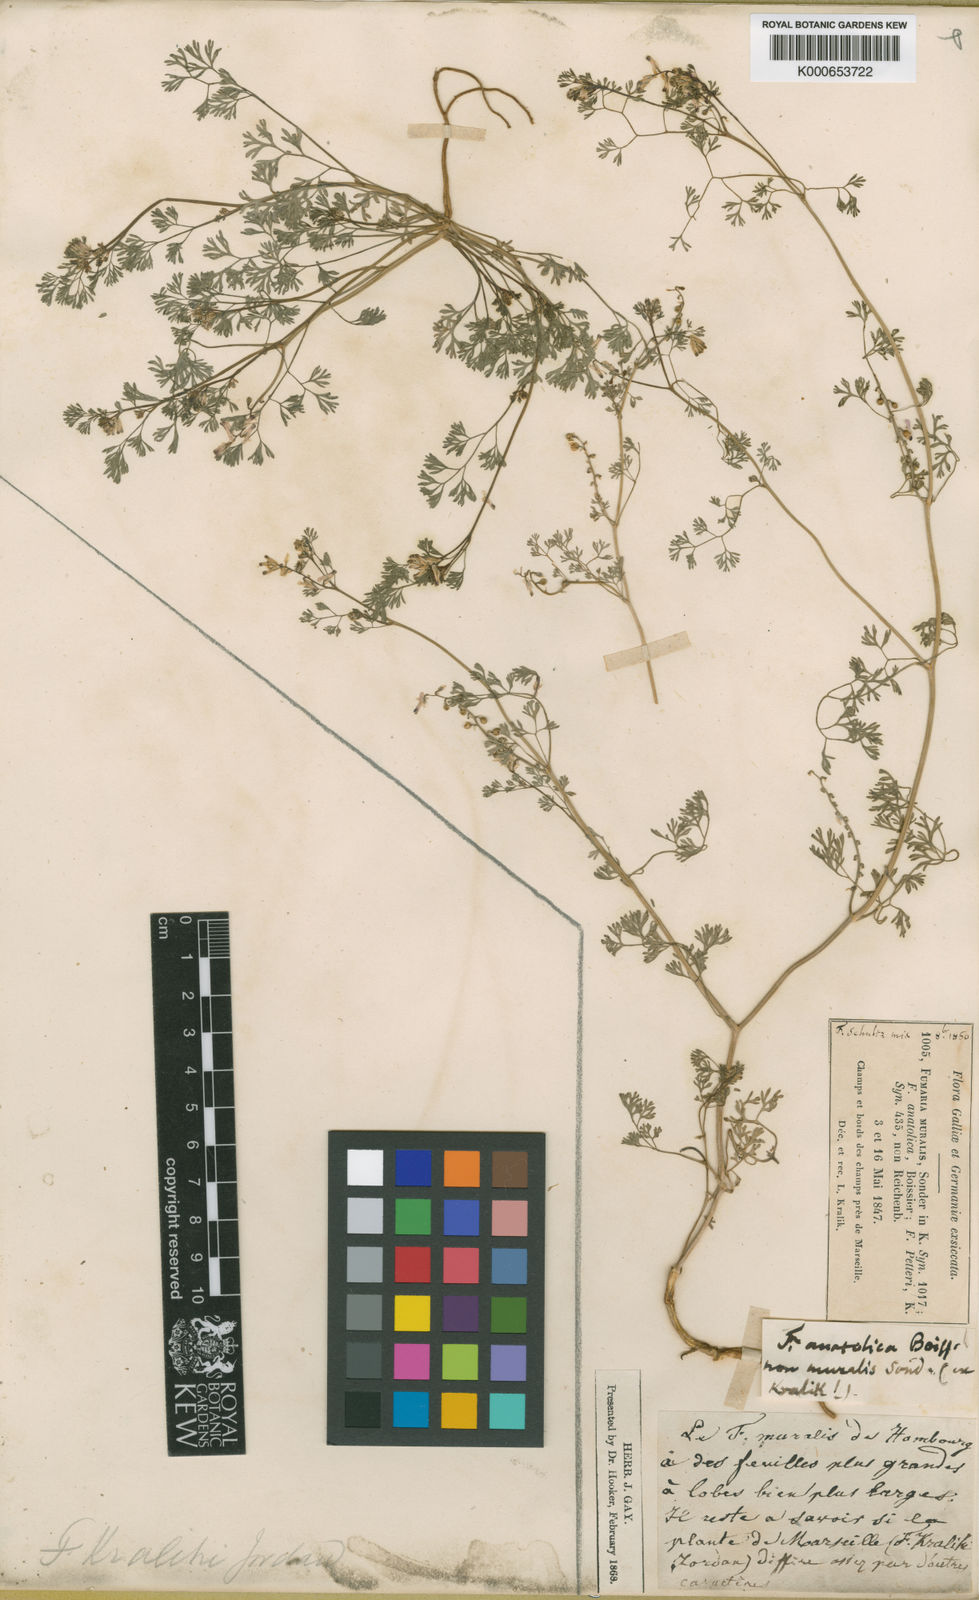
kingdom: Plantae
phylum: Tracheophyta
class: Magnoliopsida
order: Ranunculales
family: Papaveraceae
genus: Fumaria
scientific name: Fumaria kralikii
